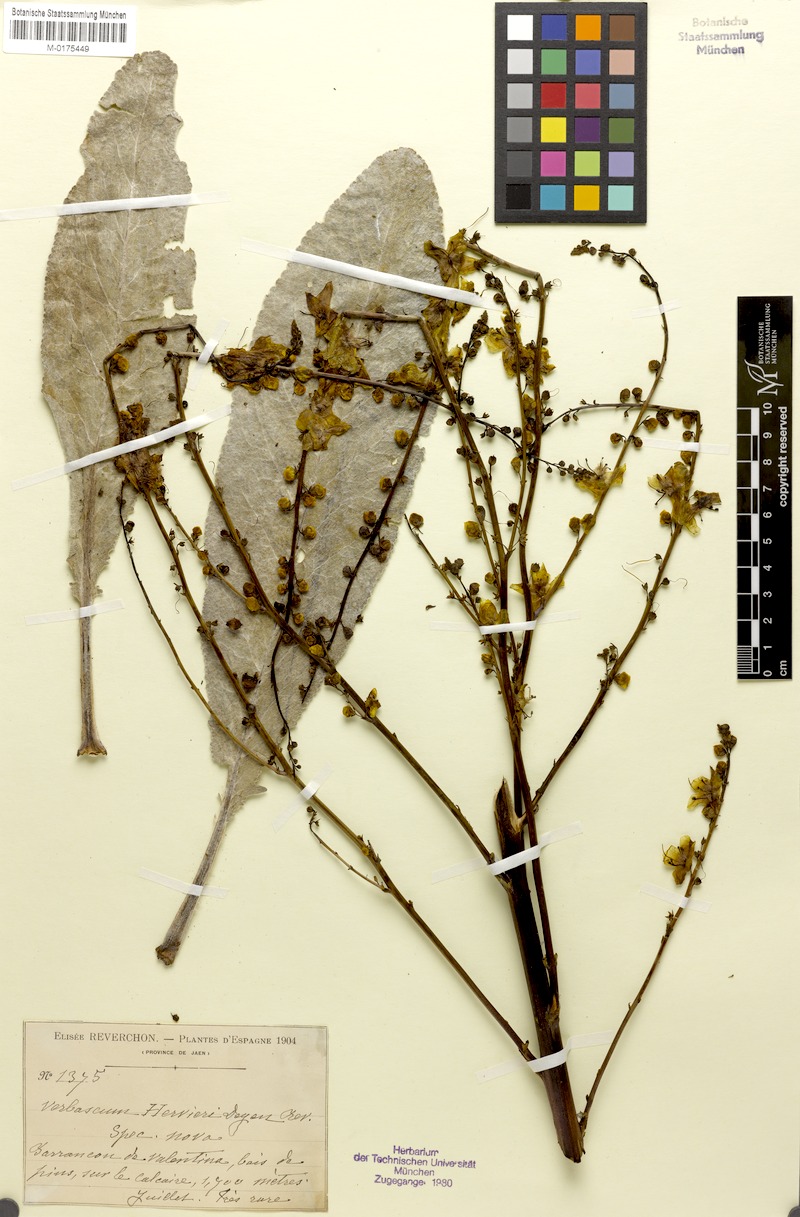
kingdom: Plantae
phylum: Tracheophyta
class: Magnoliopsida
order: Lamiales
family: Scrophulariaceae
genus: Verbascum
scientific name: Verbascum hervieri
